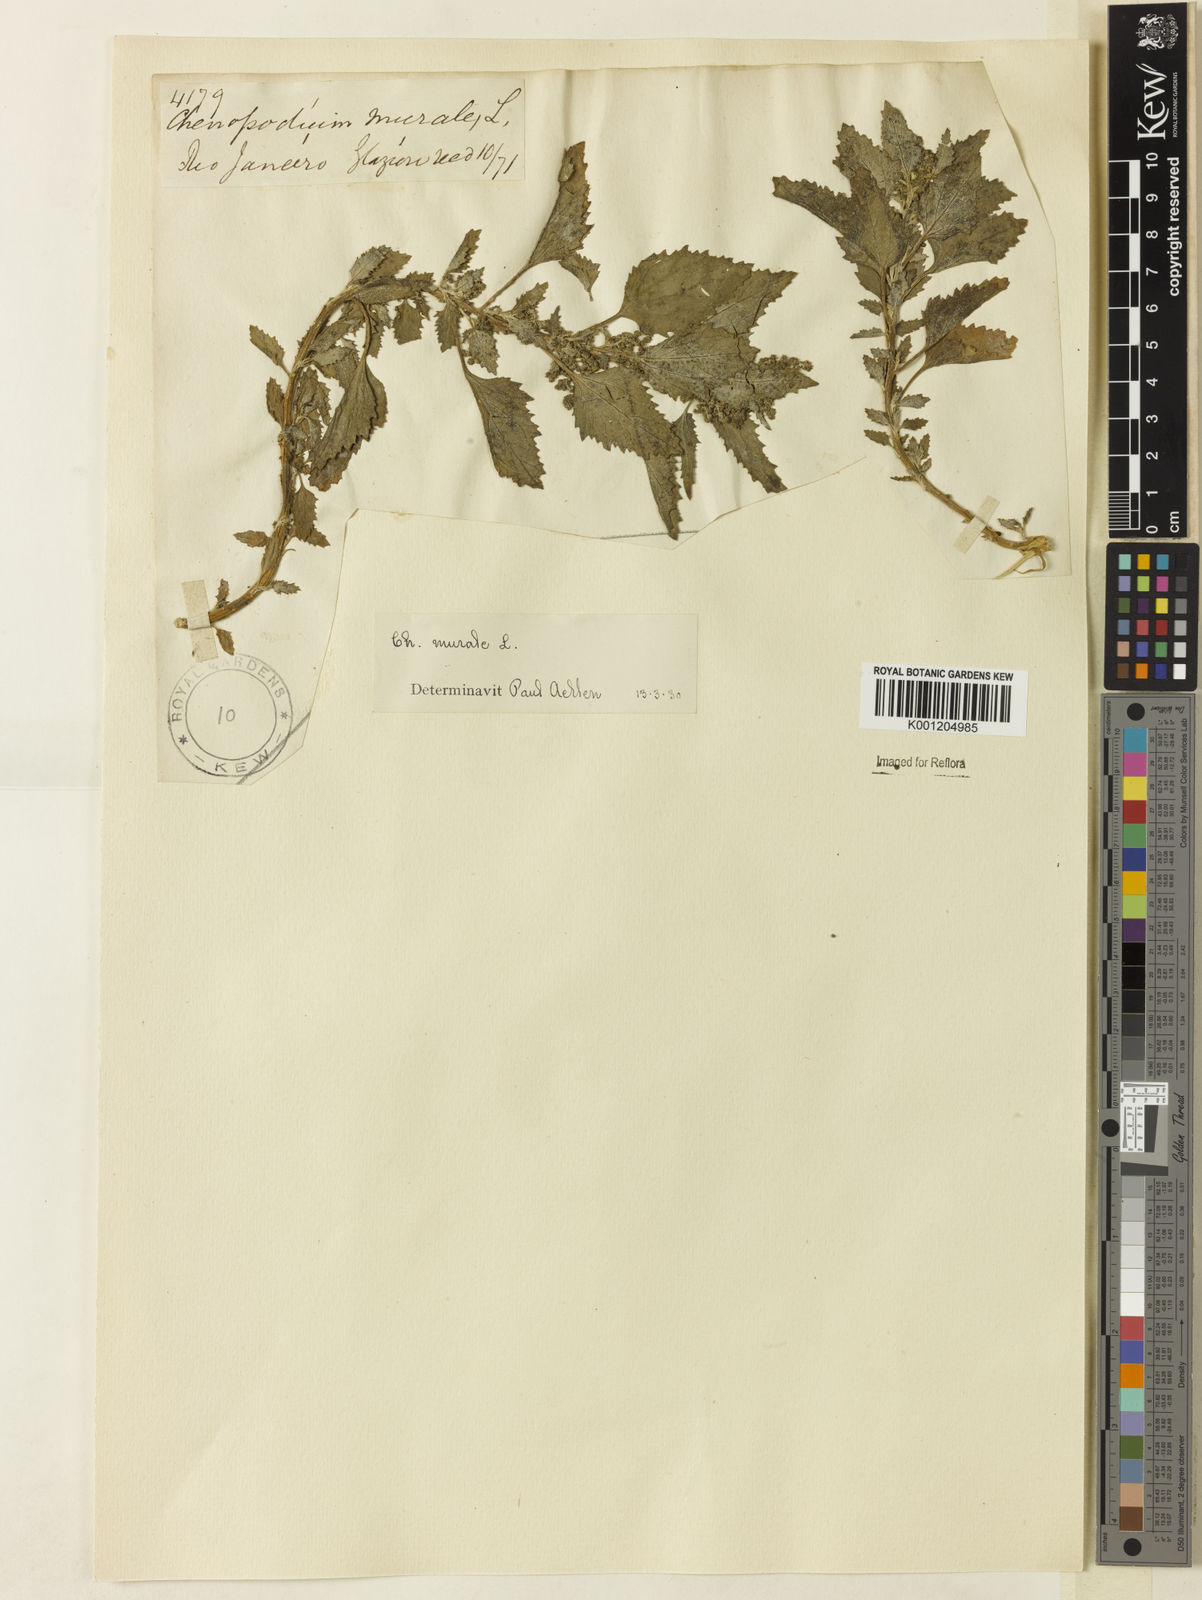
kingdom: Plantae
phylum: Tracheophyta
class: Magnoliopsida
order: Caryophyllales
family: Amaranthaceae
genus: Chenopodiastrum
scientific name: Chenopodiastrum murale
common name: Sowbane
